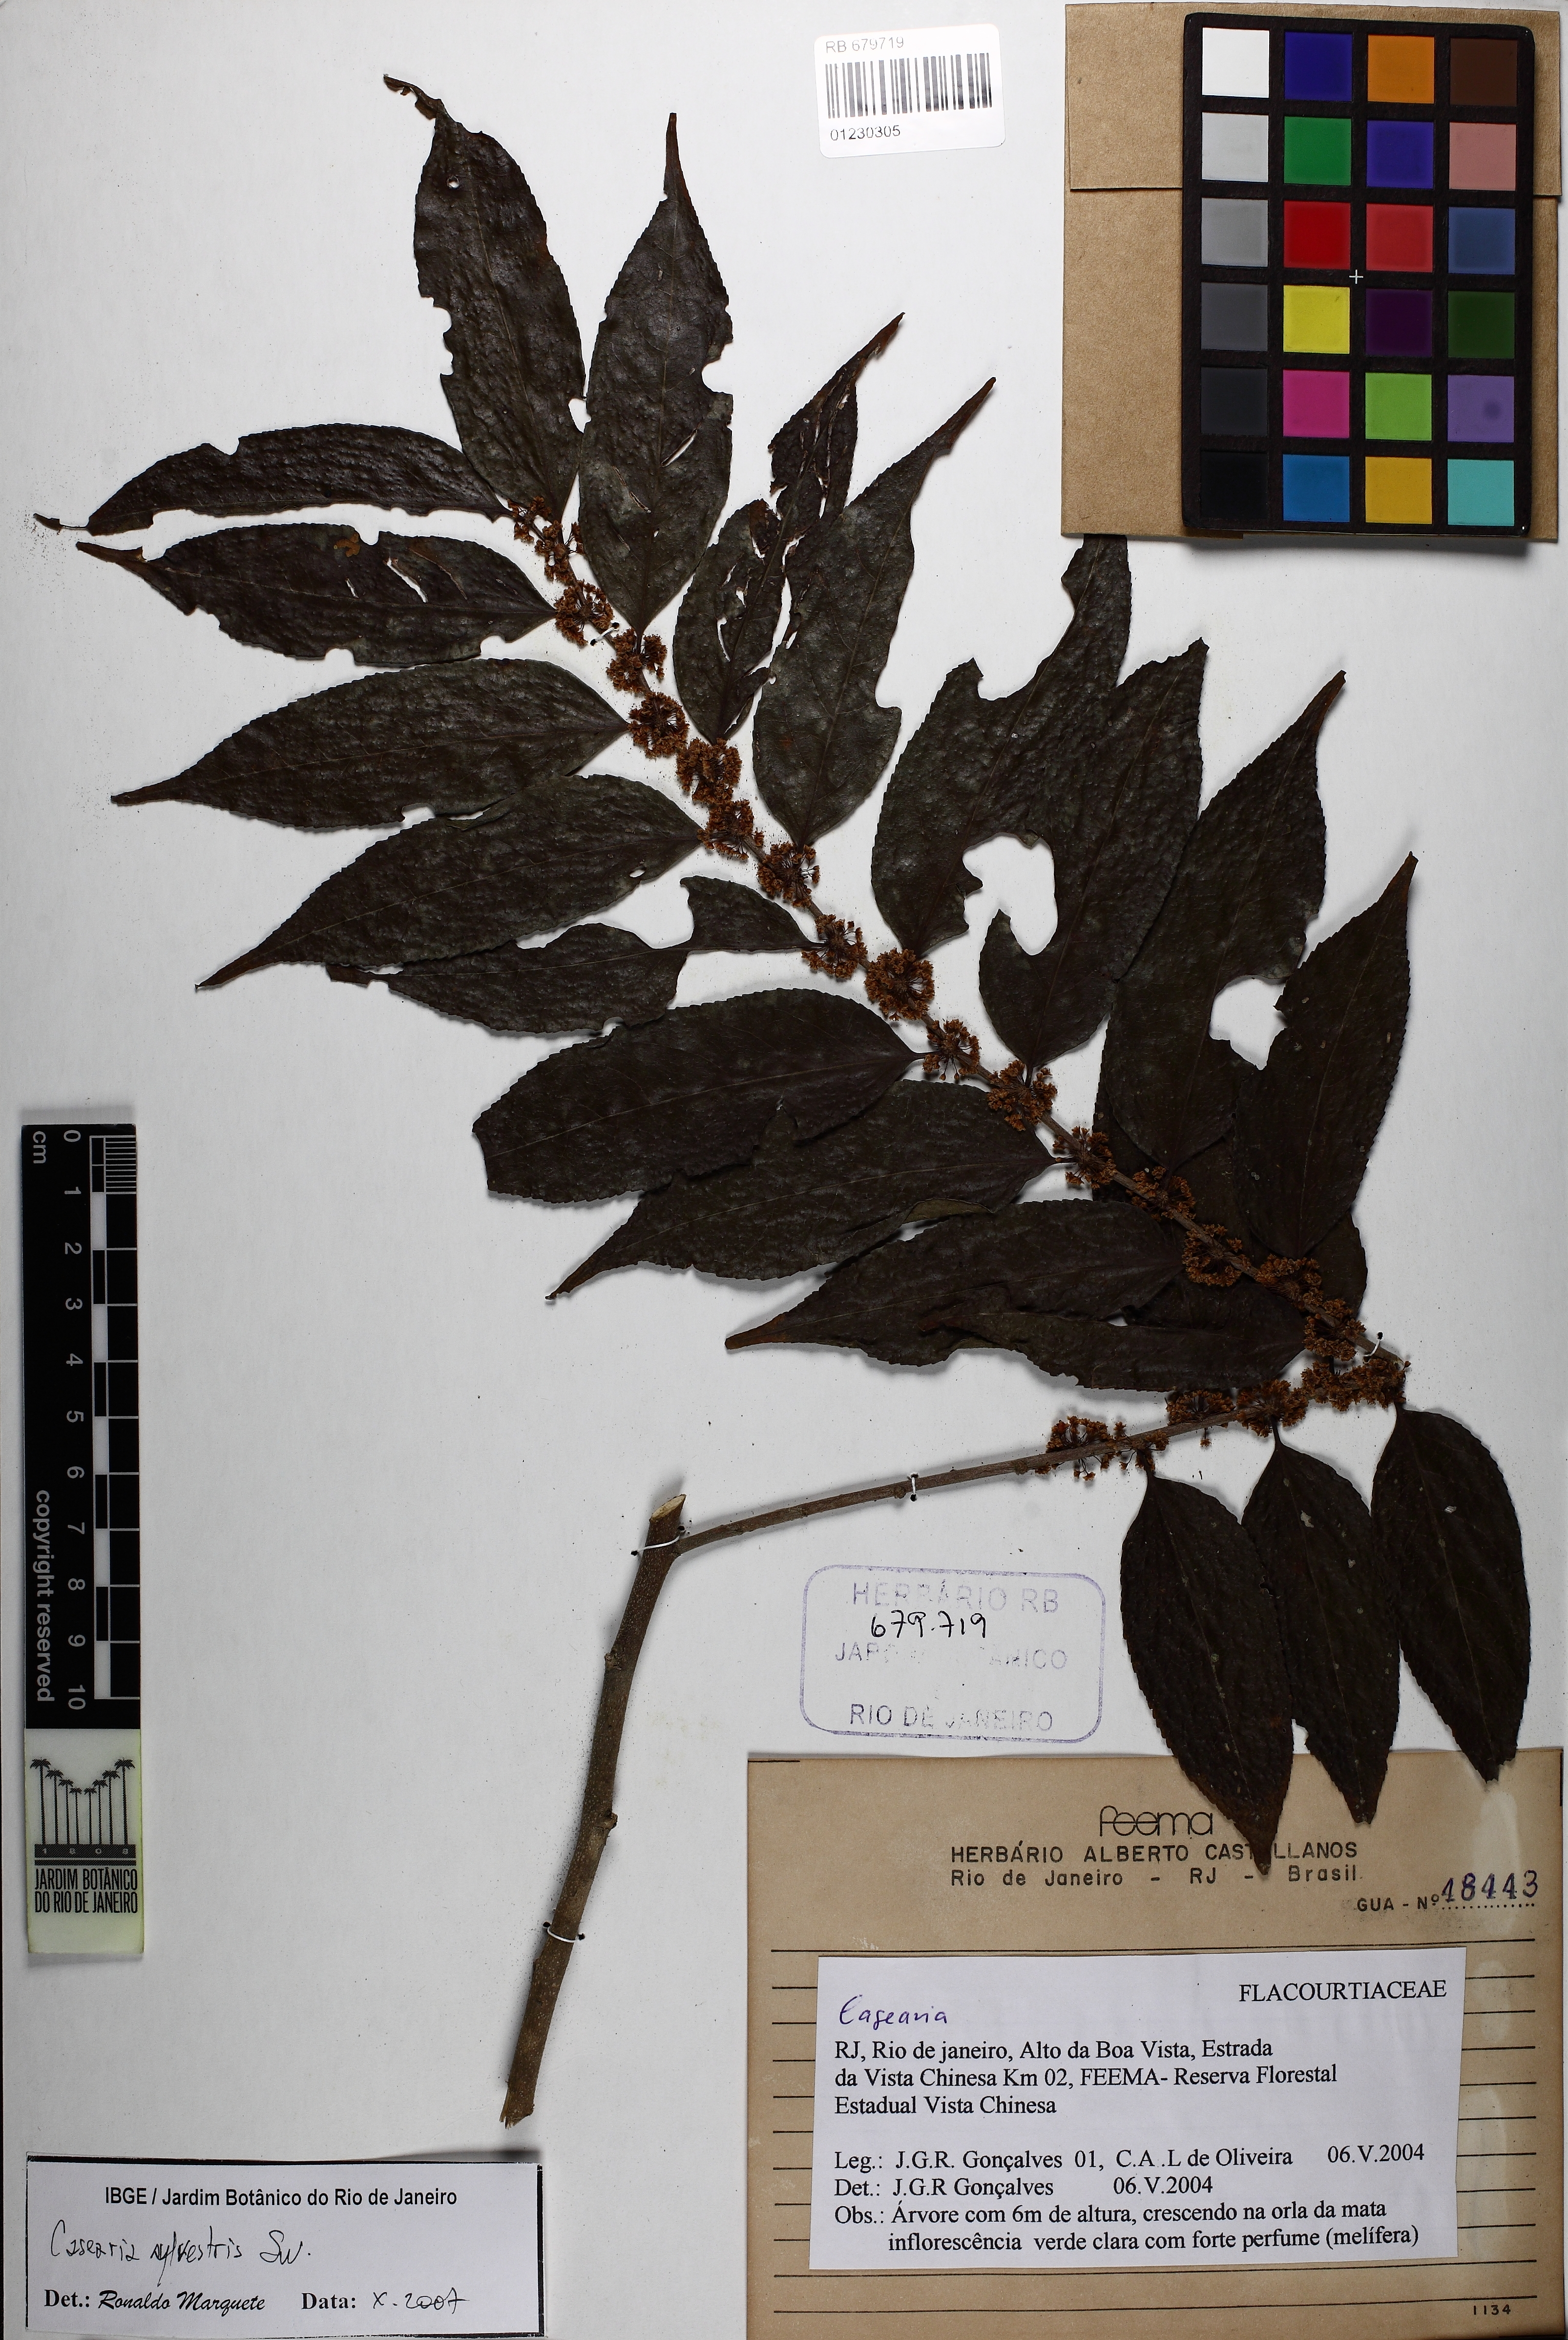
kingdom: Plantae
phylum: Tracheophyta
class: Magnoliopsida
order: Malpighiales
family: Salicaceae
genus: Casearia
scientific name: Casearia sylvestris
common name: Wild sage
